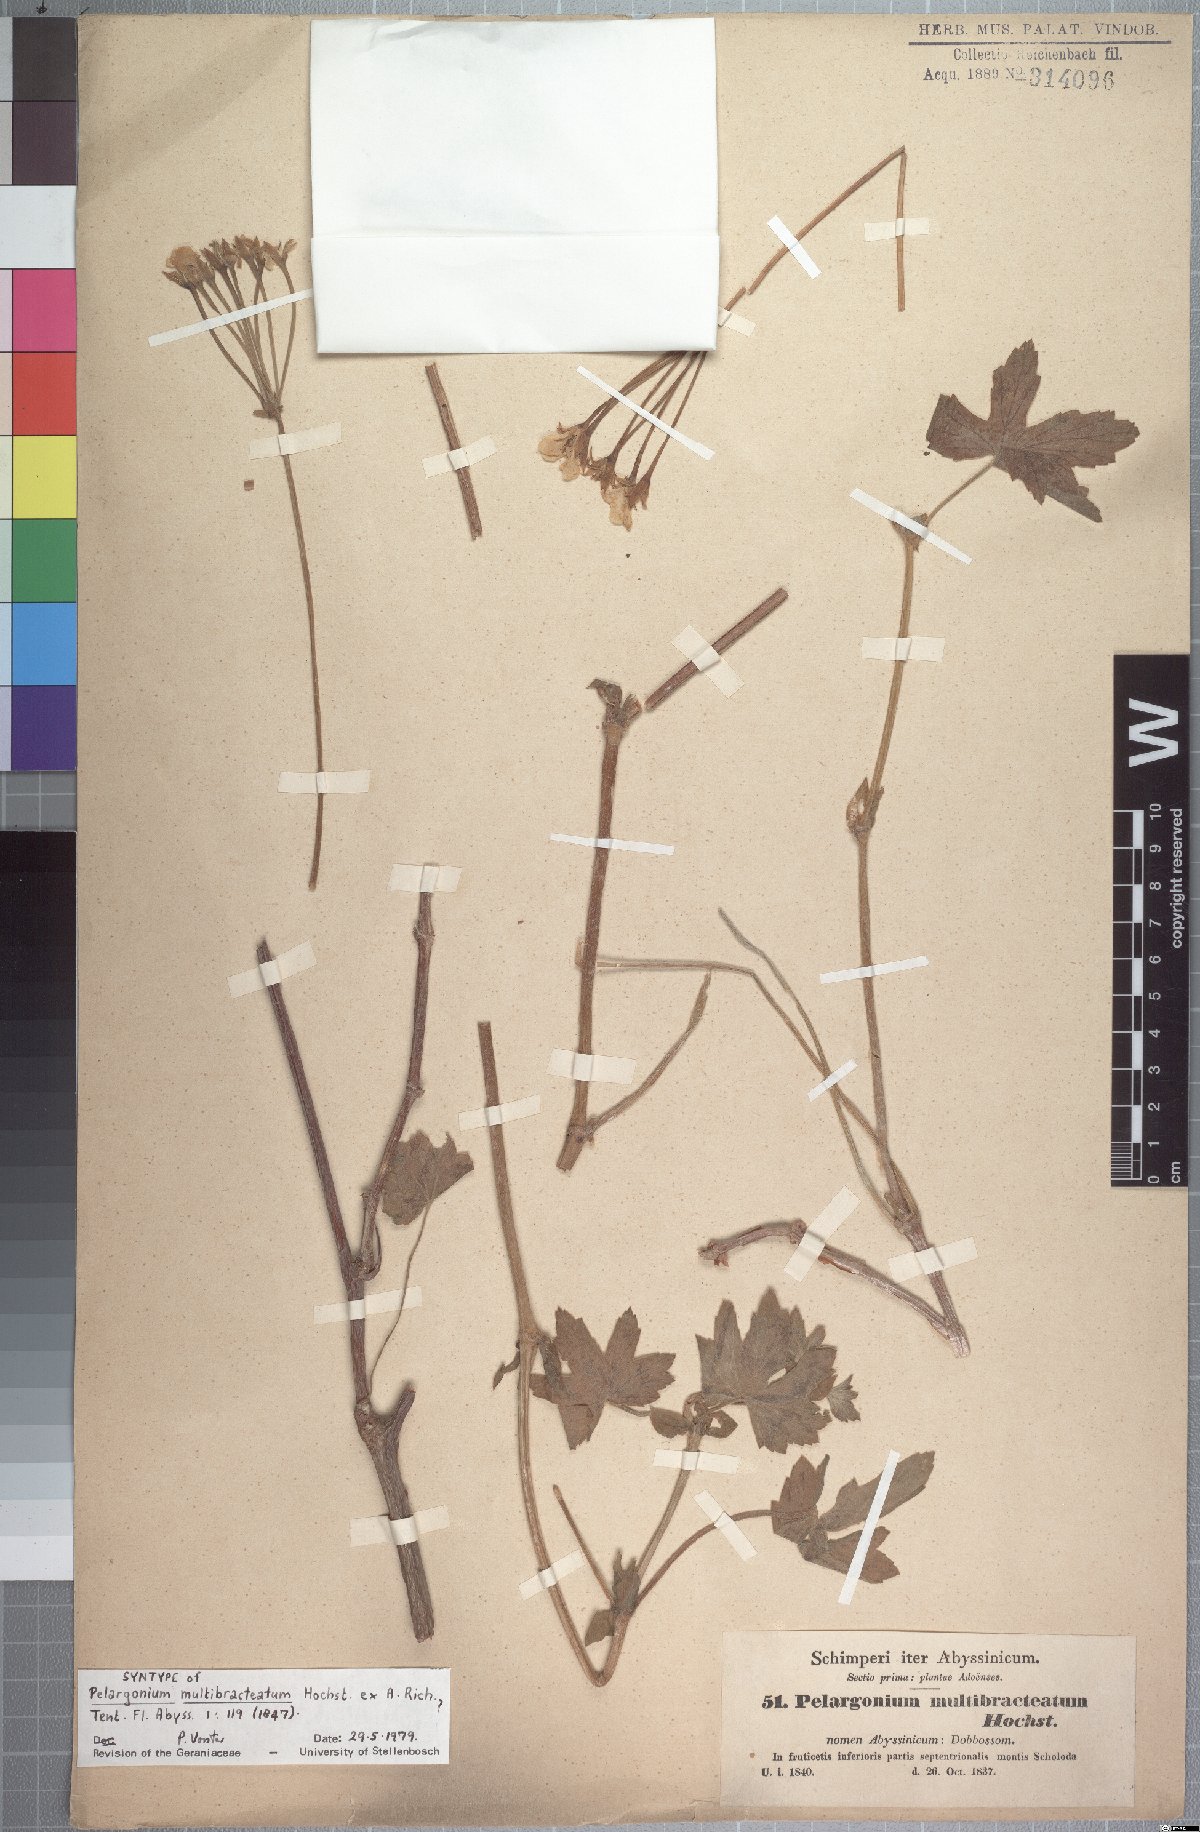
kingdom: Plantae
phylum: Tracheophyta
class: Magnoliopsida
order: Geraniales
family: Geraniaceae
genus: Pelargonium
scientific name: Pelargonium multibracteatum
